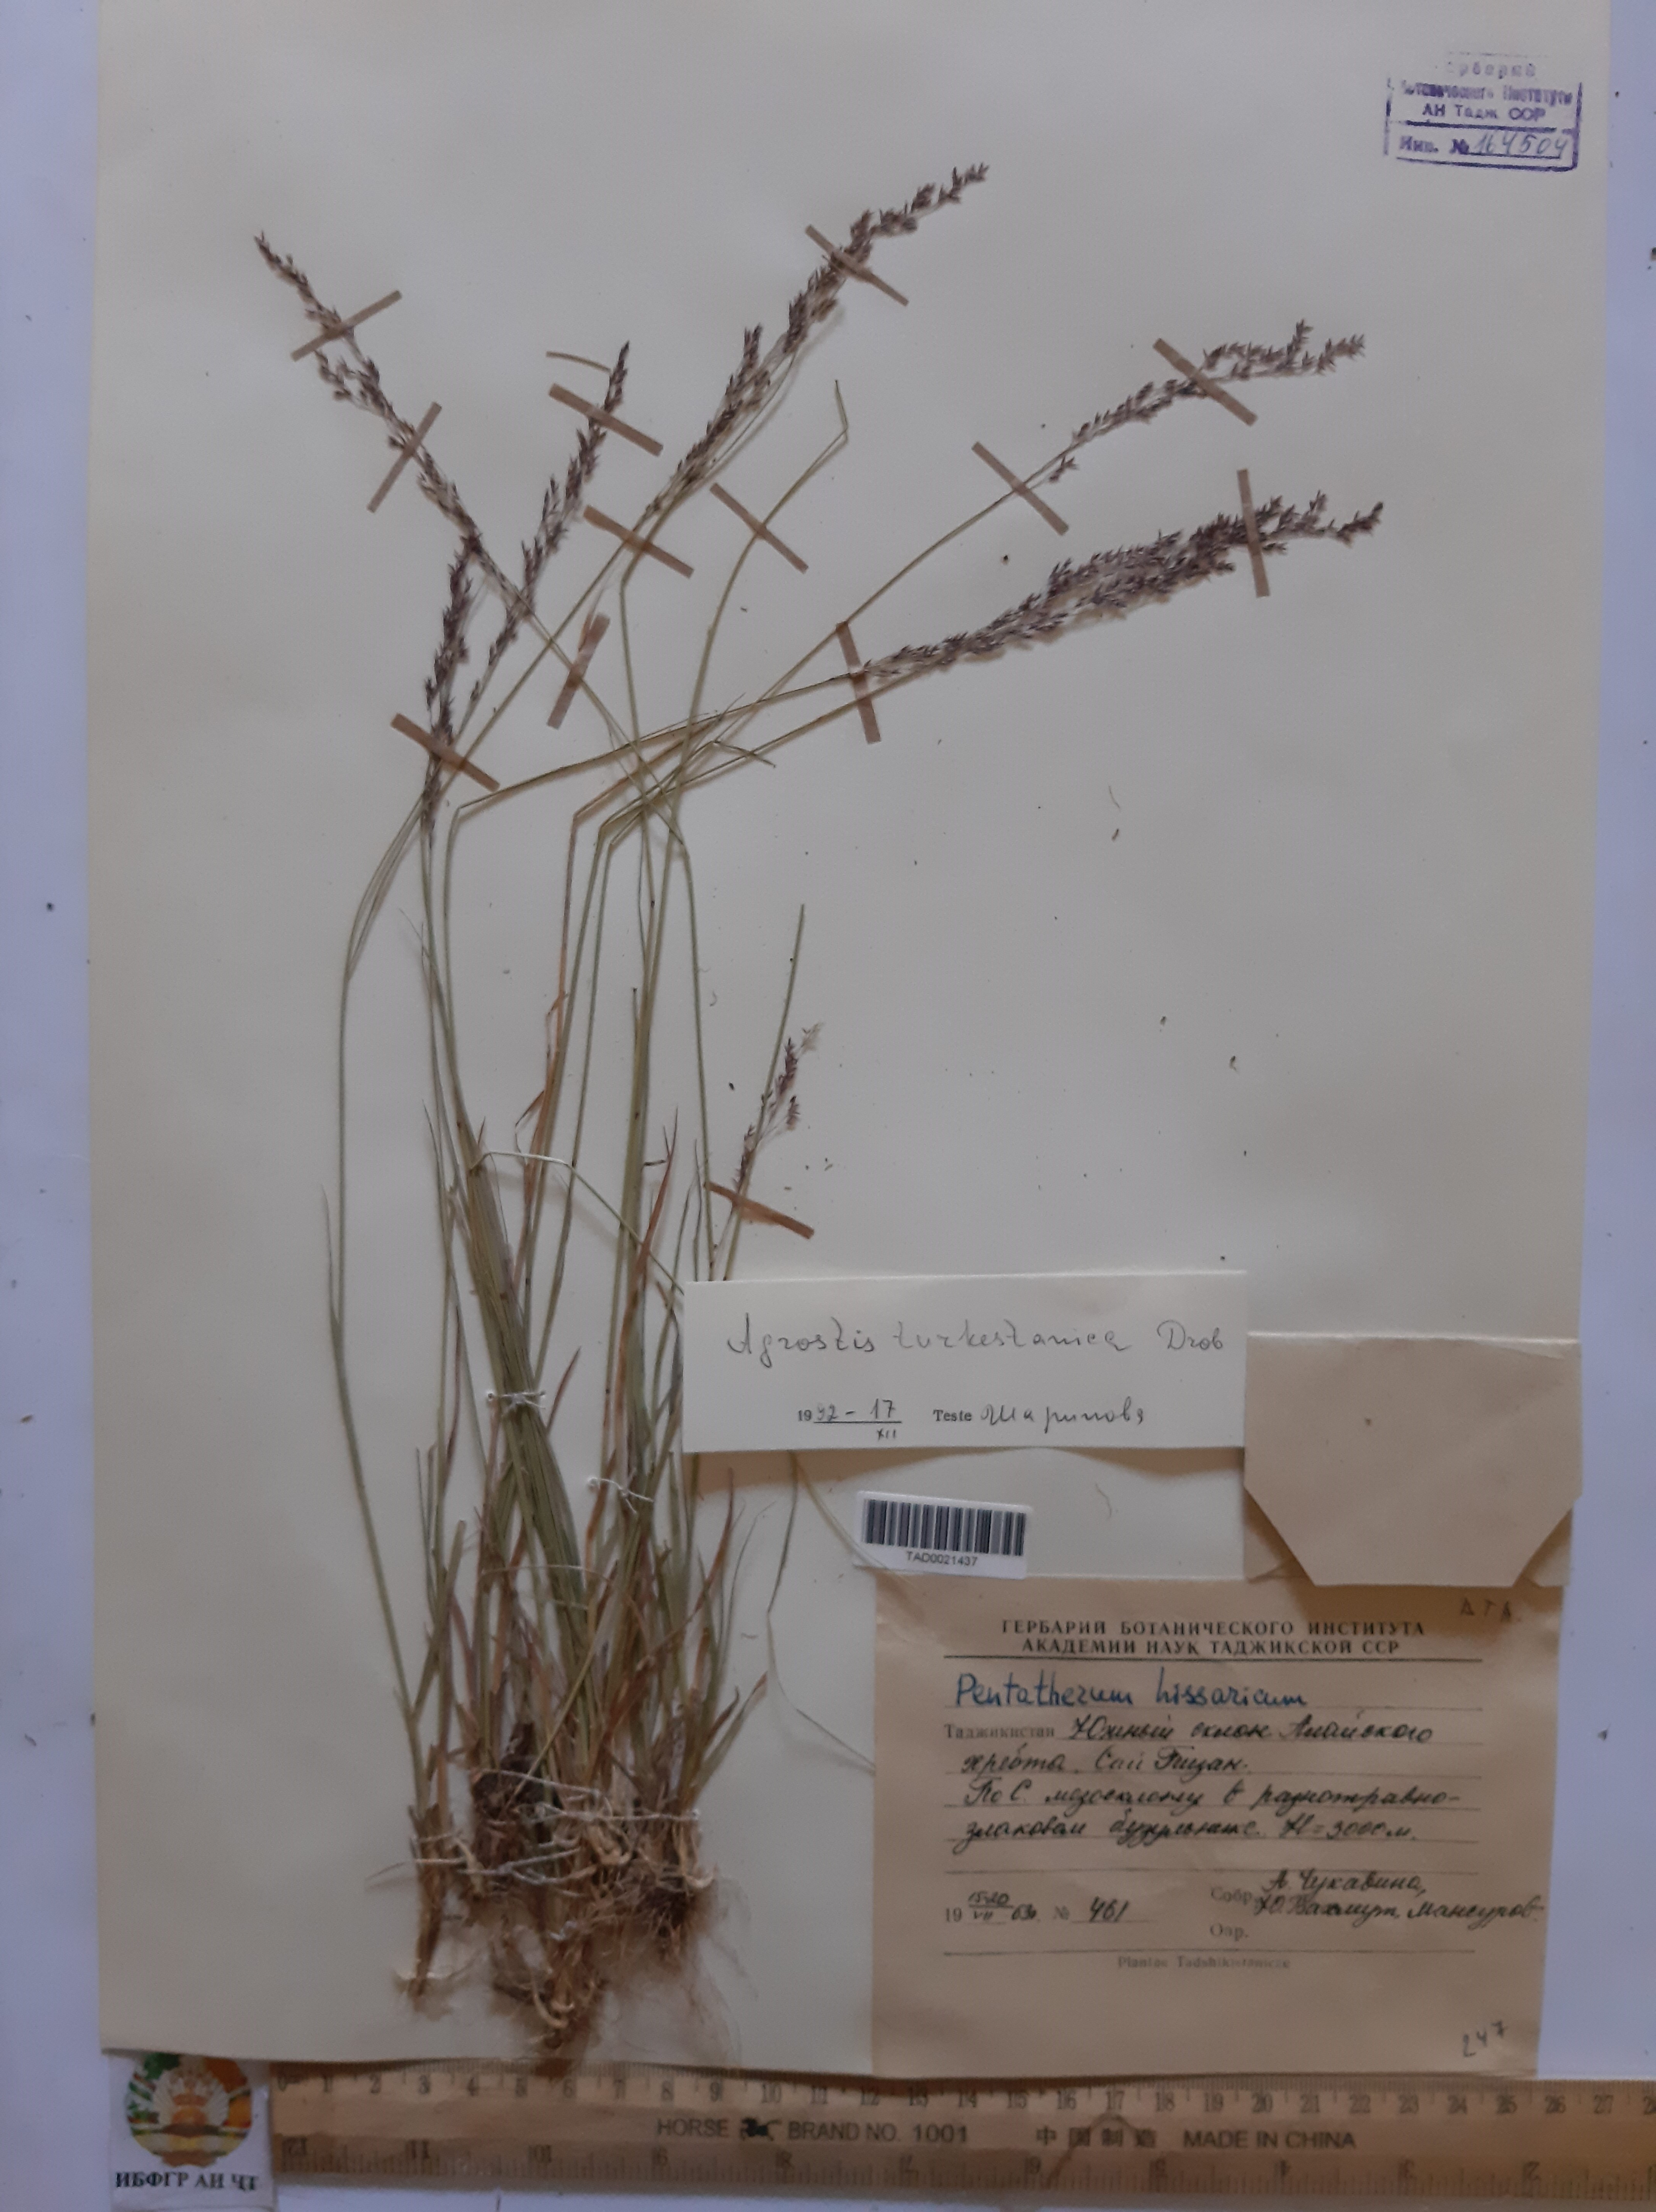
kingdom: Plantae
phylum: Tracheophyta
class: Liliopsida
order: Poales
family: Poaceae
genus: Agrostis
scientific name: Agrostis vinealis
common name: Brown bent
